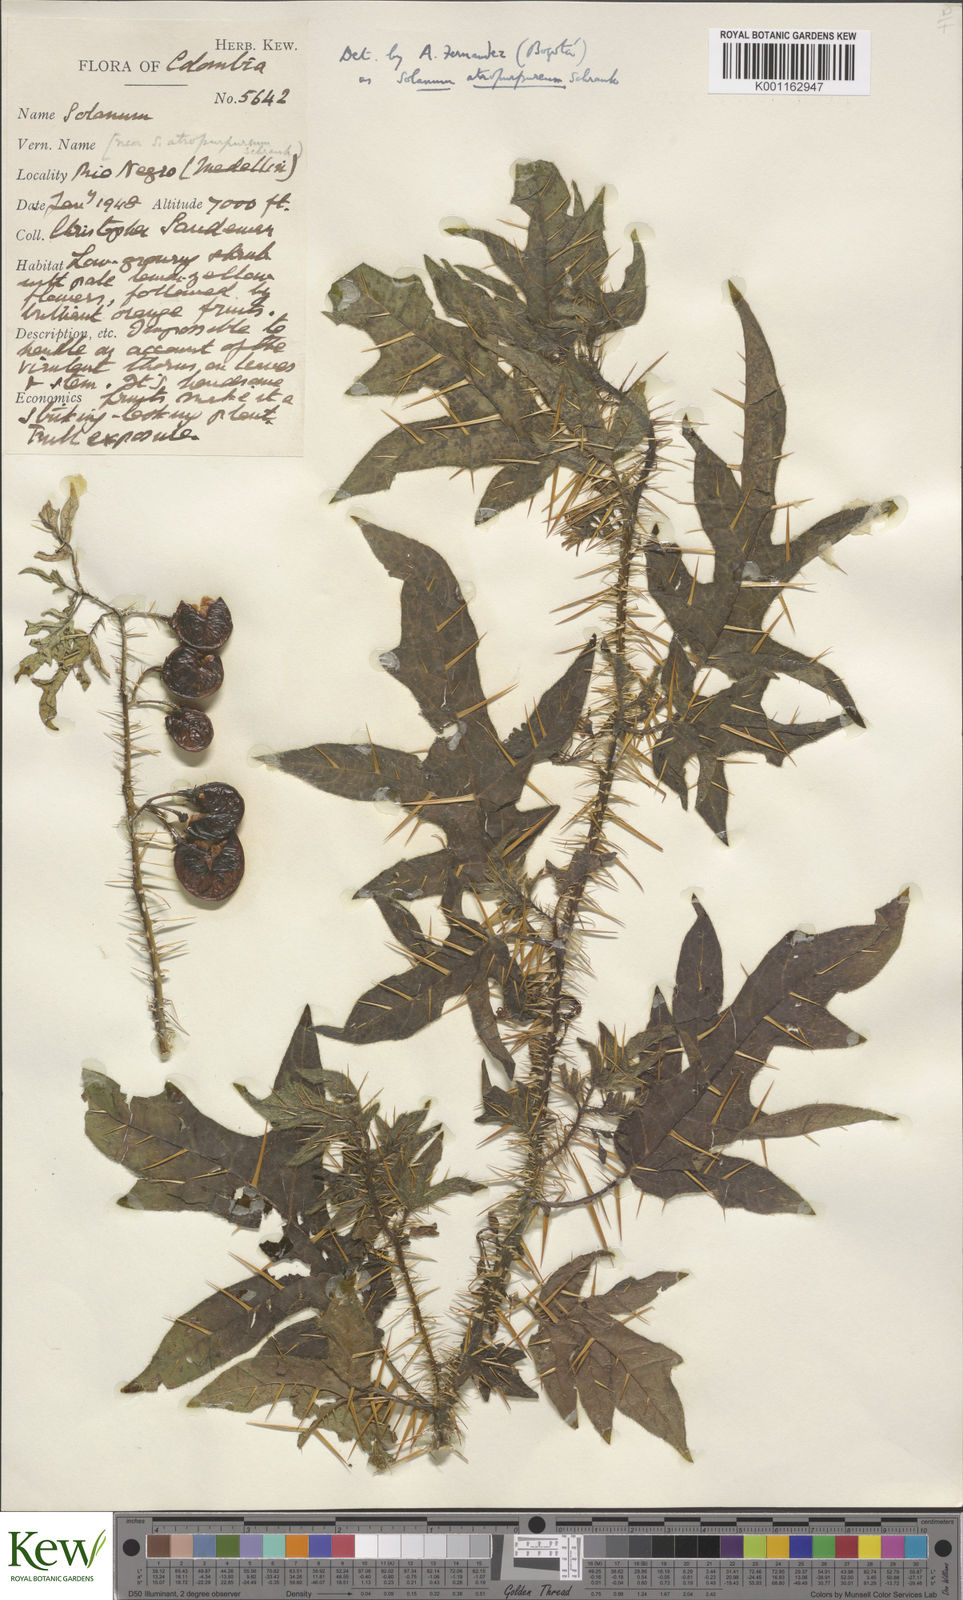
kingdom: Plantae
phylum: Tracheophyta
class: Magnoliopsida
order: Solanales
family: Solanaceae
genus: Solanum
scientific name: Solanum atropurpureum
